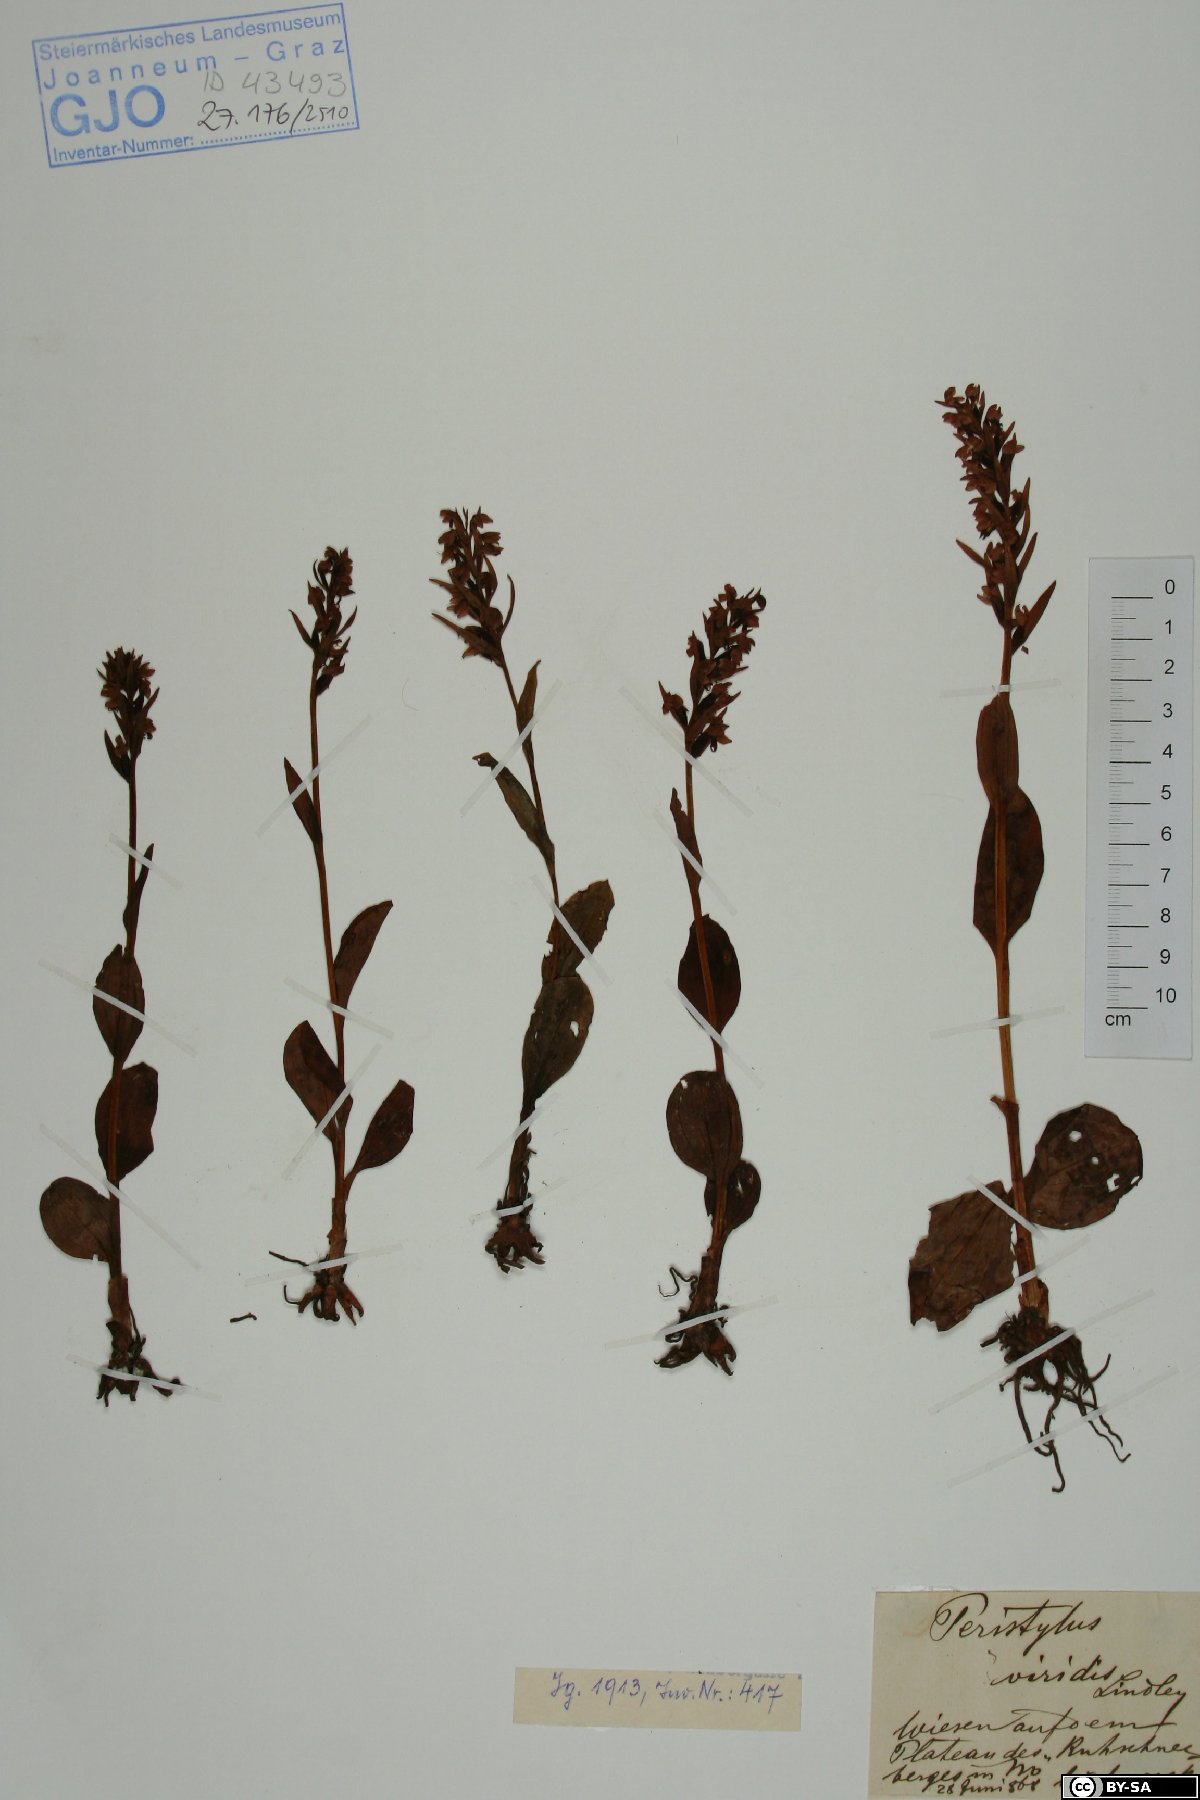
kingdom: Plantae
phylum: Tracheophyta
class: Liliopsida
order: Asparagales
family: Orchidaceae
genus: Dactylorhiza
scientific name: Dactylorhiza viridis
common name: Longbract frog orchid
